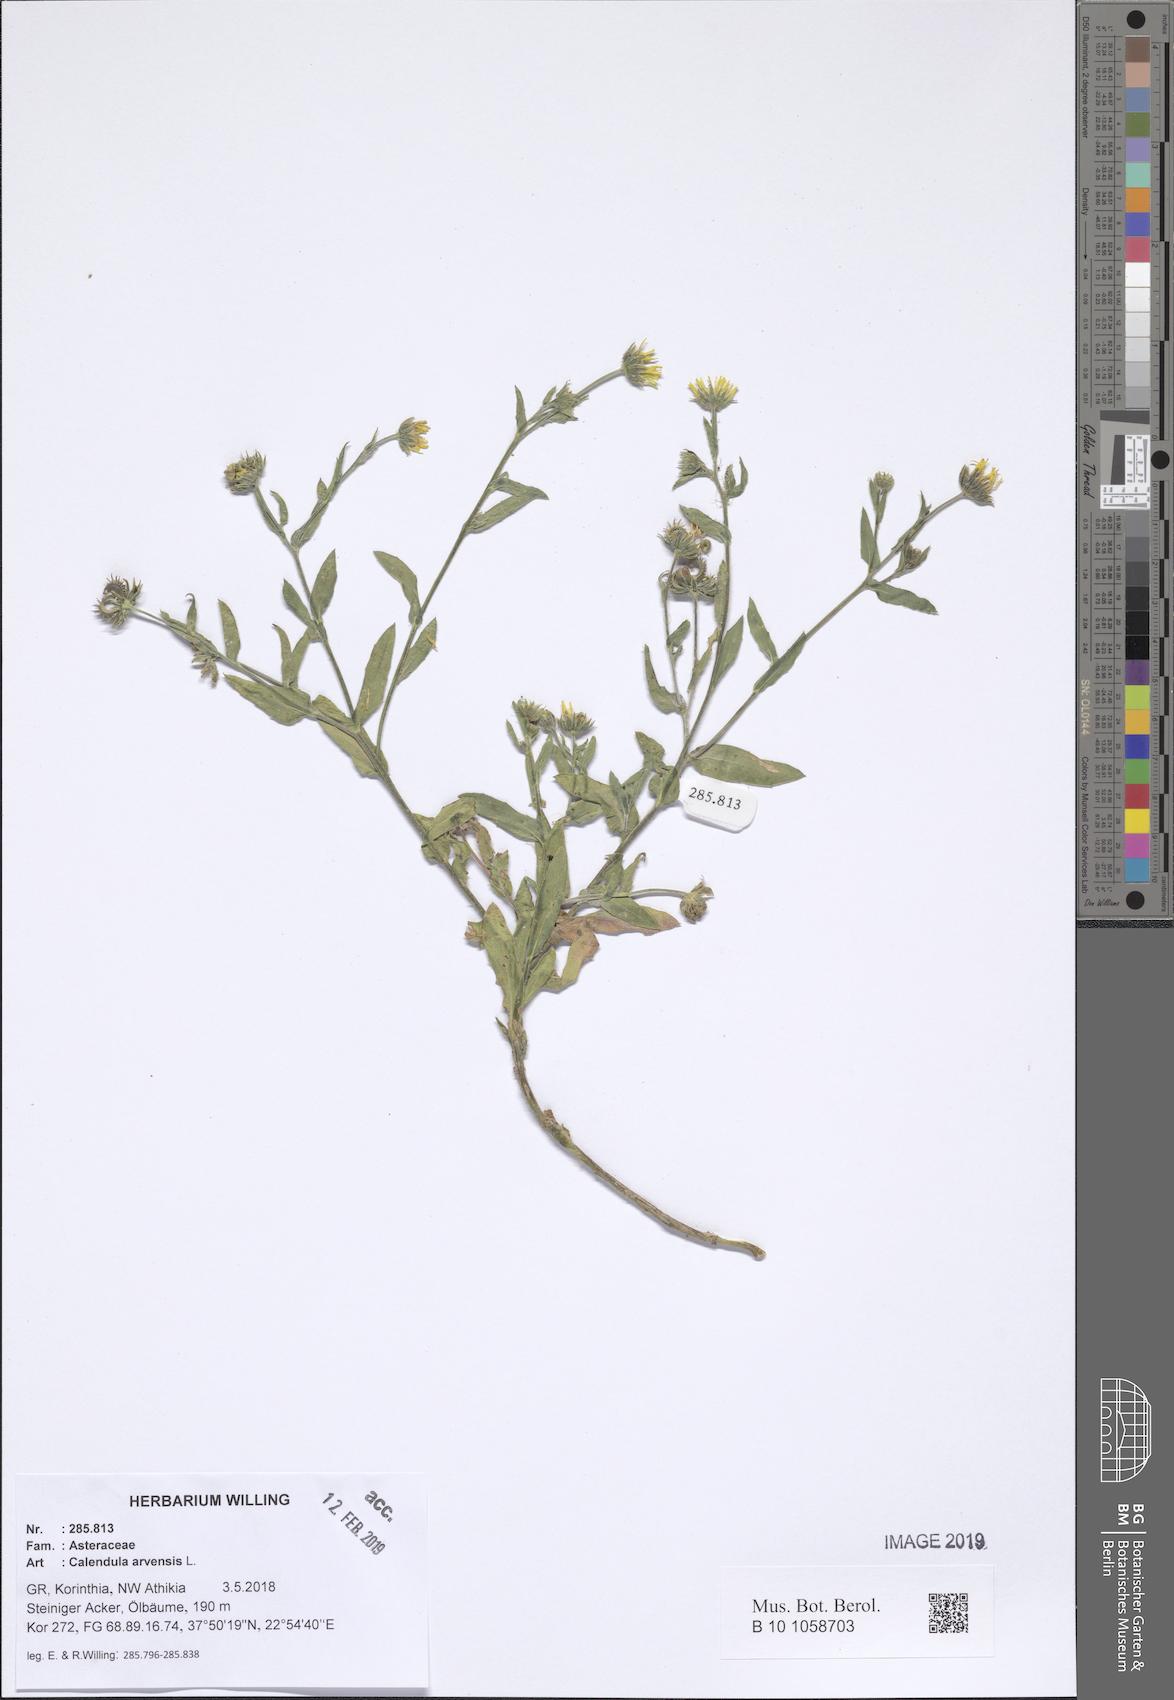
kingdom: Plantae
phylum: Tracheophyta
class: Magnoliopsida
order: Asterales
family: Asteraceae
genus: Calendula
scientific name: Calendula arvensis
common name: Field marigold
